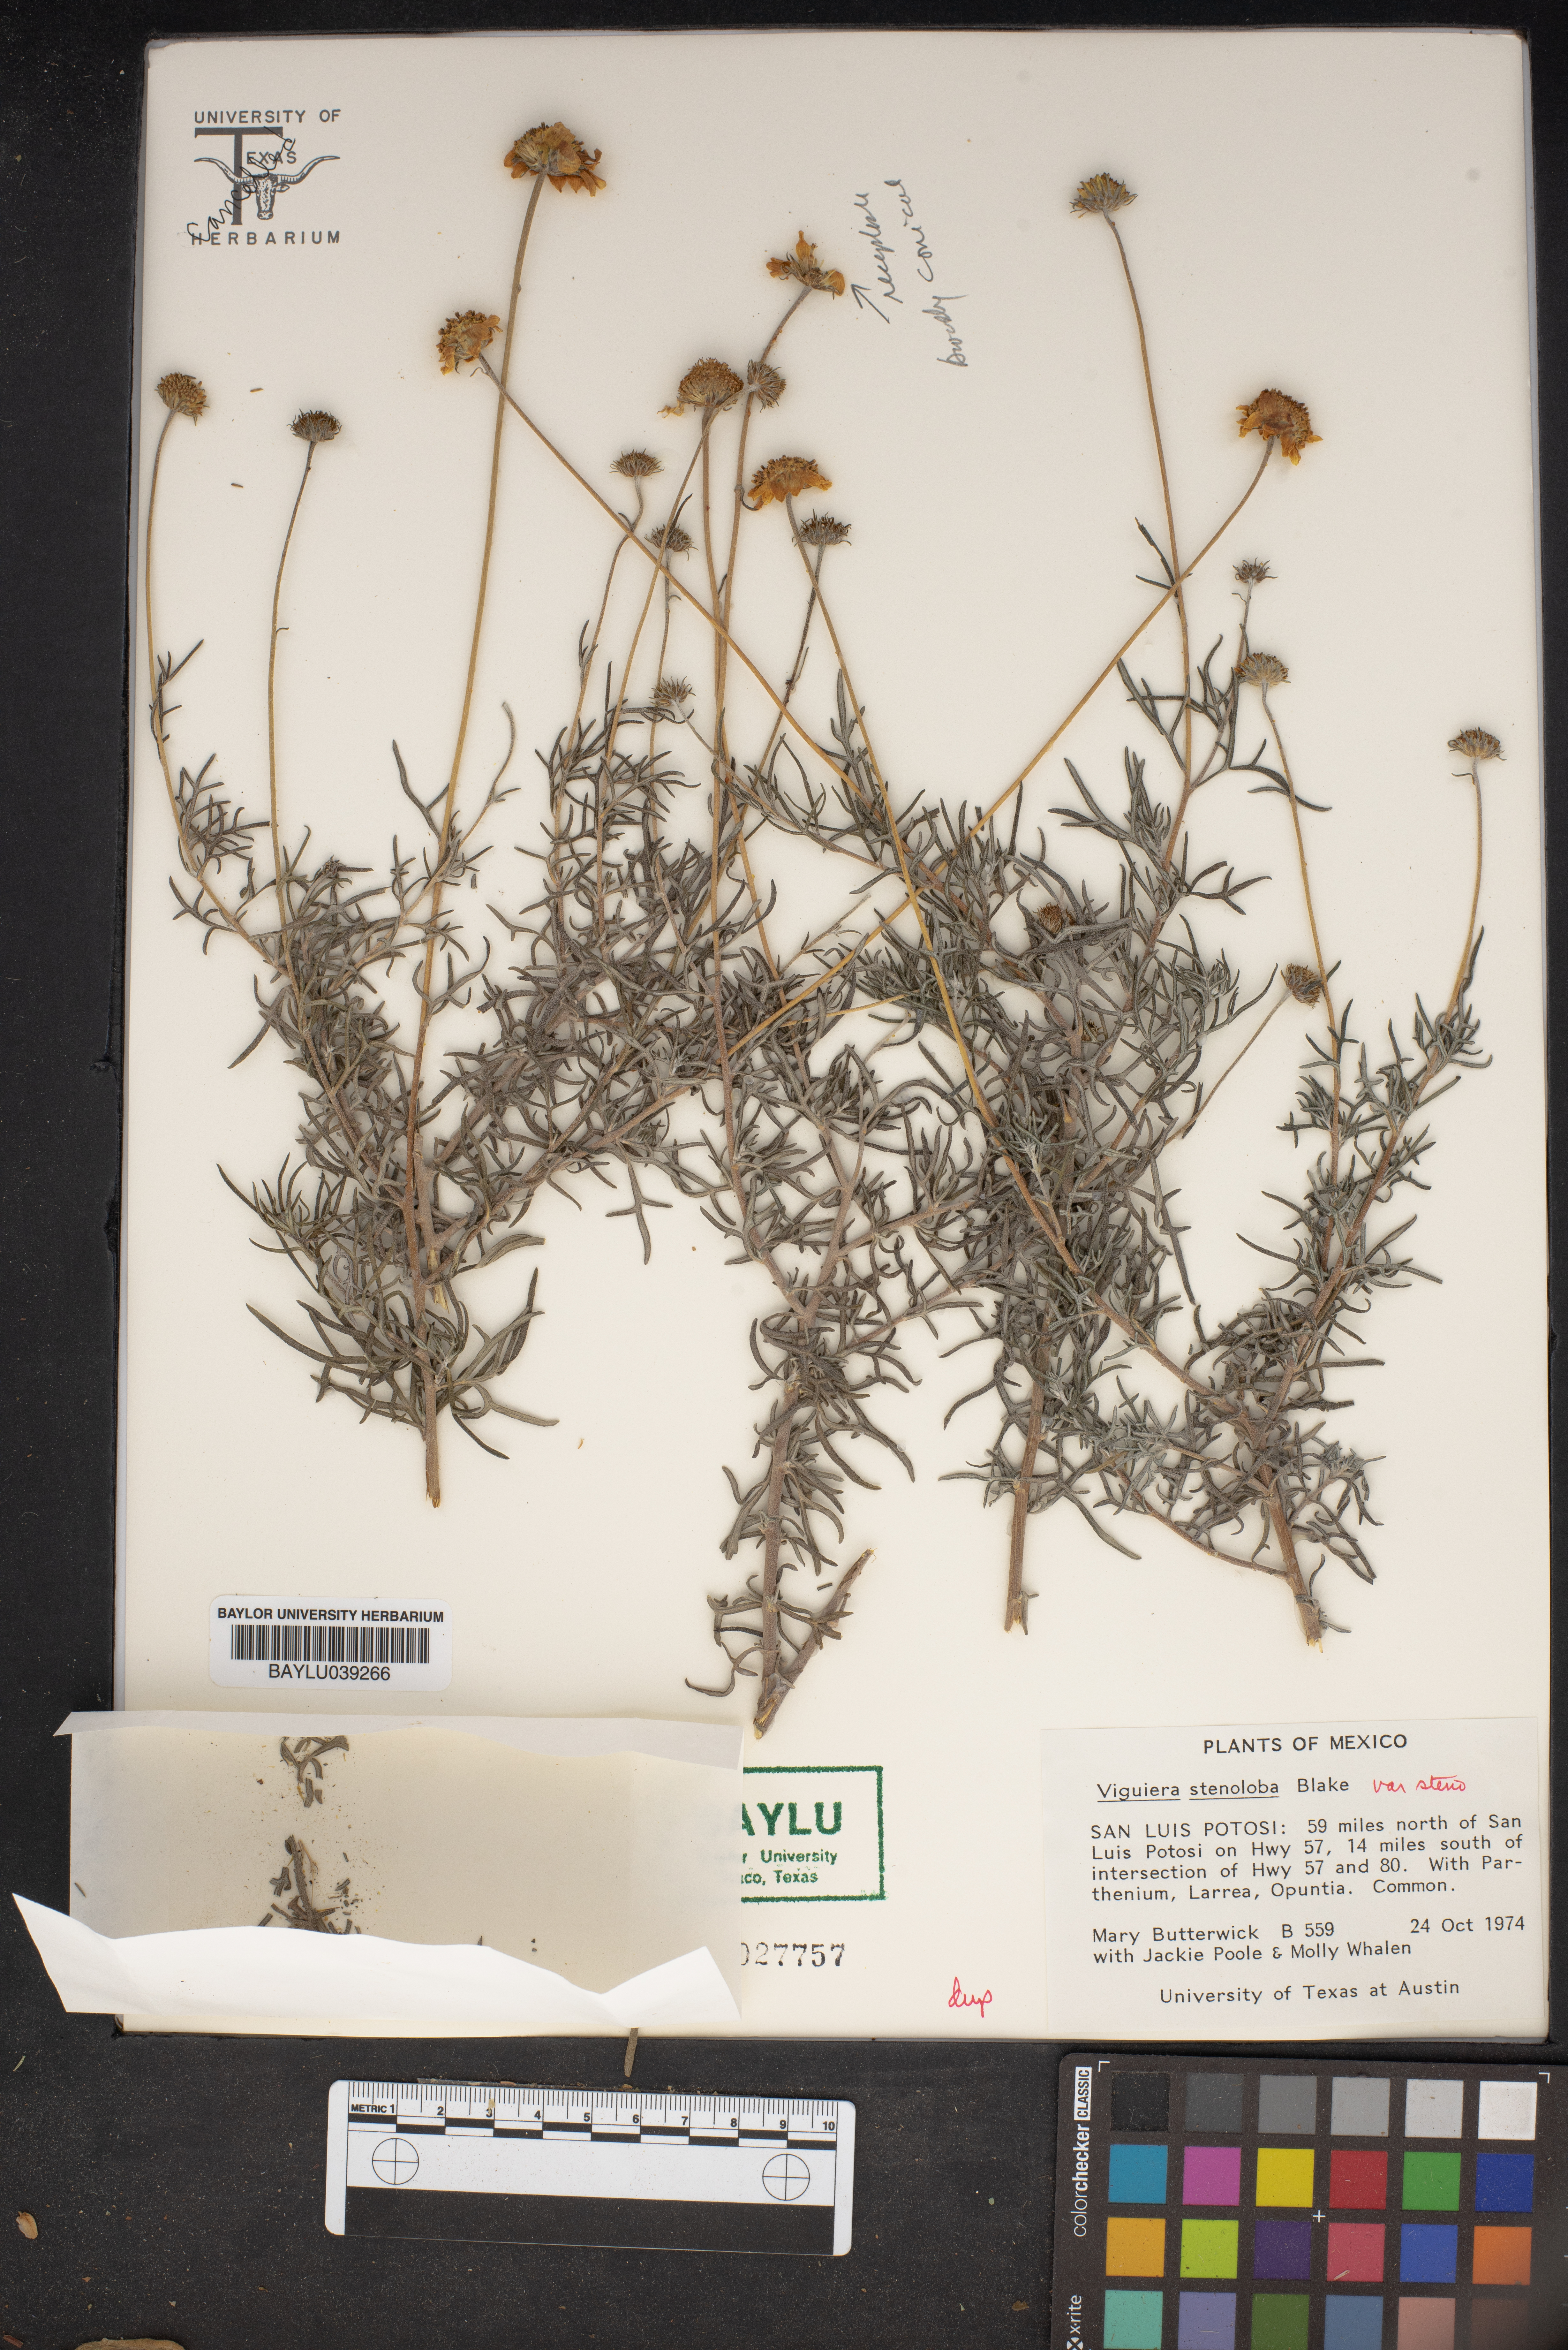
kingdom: Plantae
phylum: Tracheophyta
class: Magnoliopsida
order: Asterales
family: Asteraceae
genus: Sidneya
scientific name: Sidneya tenuifolia
